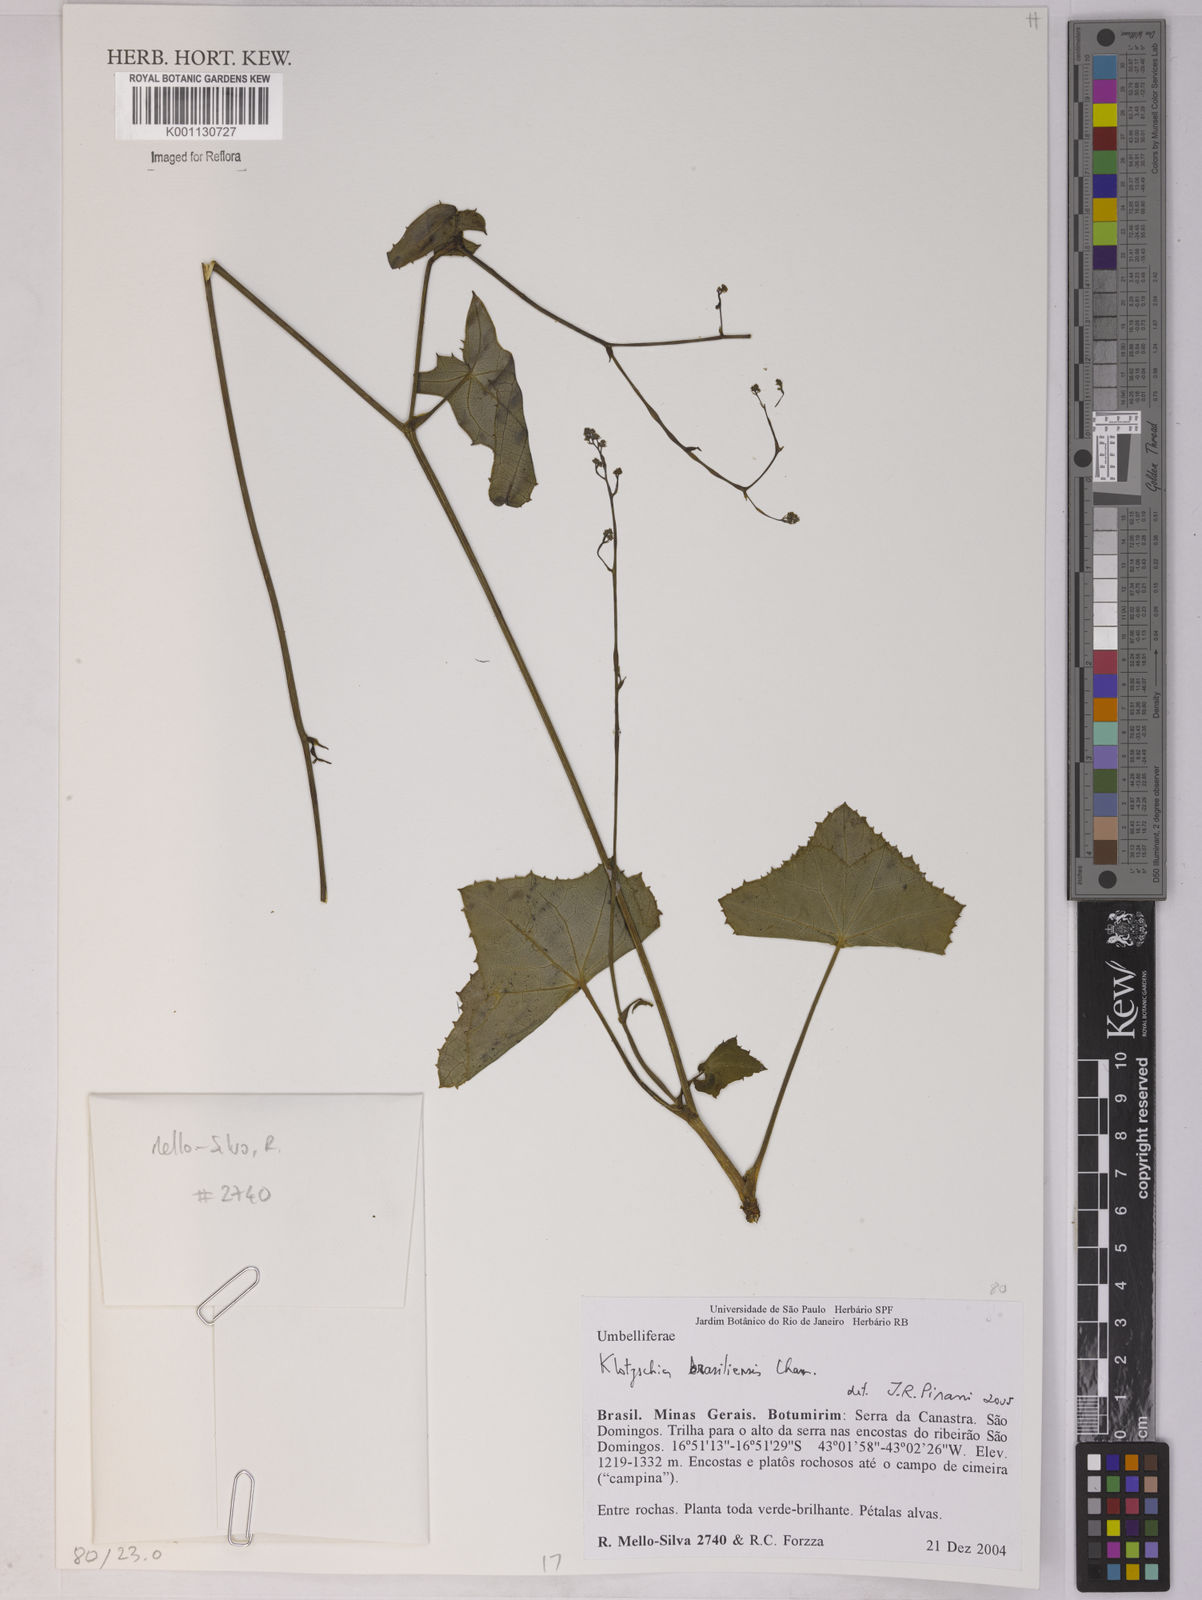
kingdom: Plantae
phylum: Tracheophyta
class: Magnoliopsida
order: Apiales
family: Apiaceae
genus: Klotzschia
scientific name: Klotzschia brasiliensis
